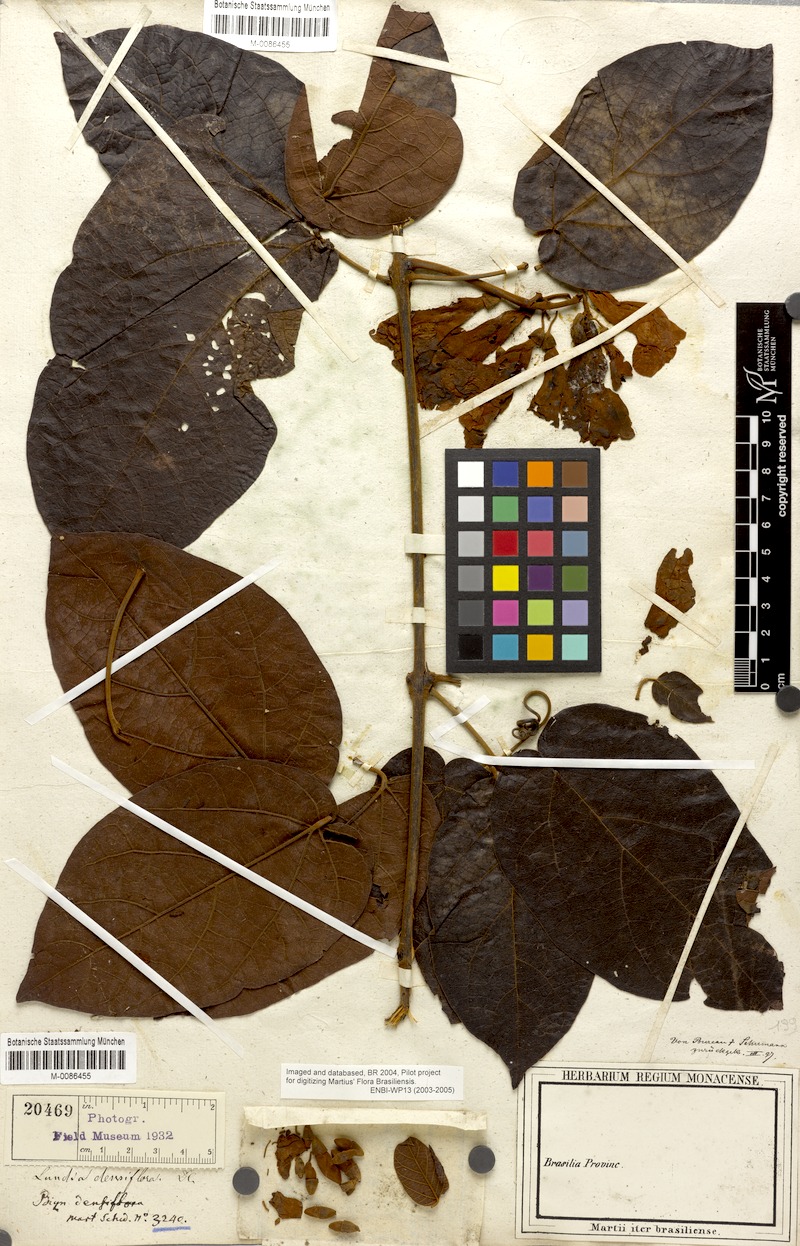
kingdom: Plantae
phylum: Tracheophyta
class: Magnoliopsida
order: Lamiales
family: Bignoniaceae
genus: Lundia
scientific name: Lundia densiflora
